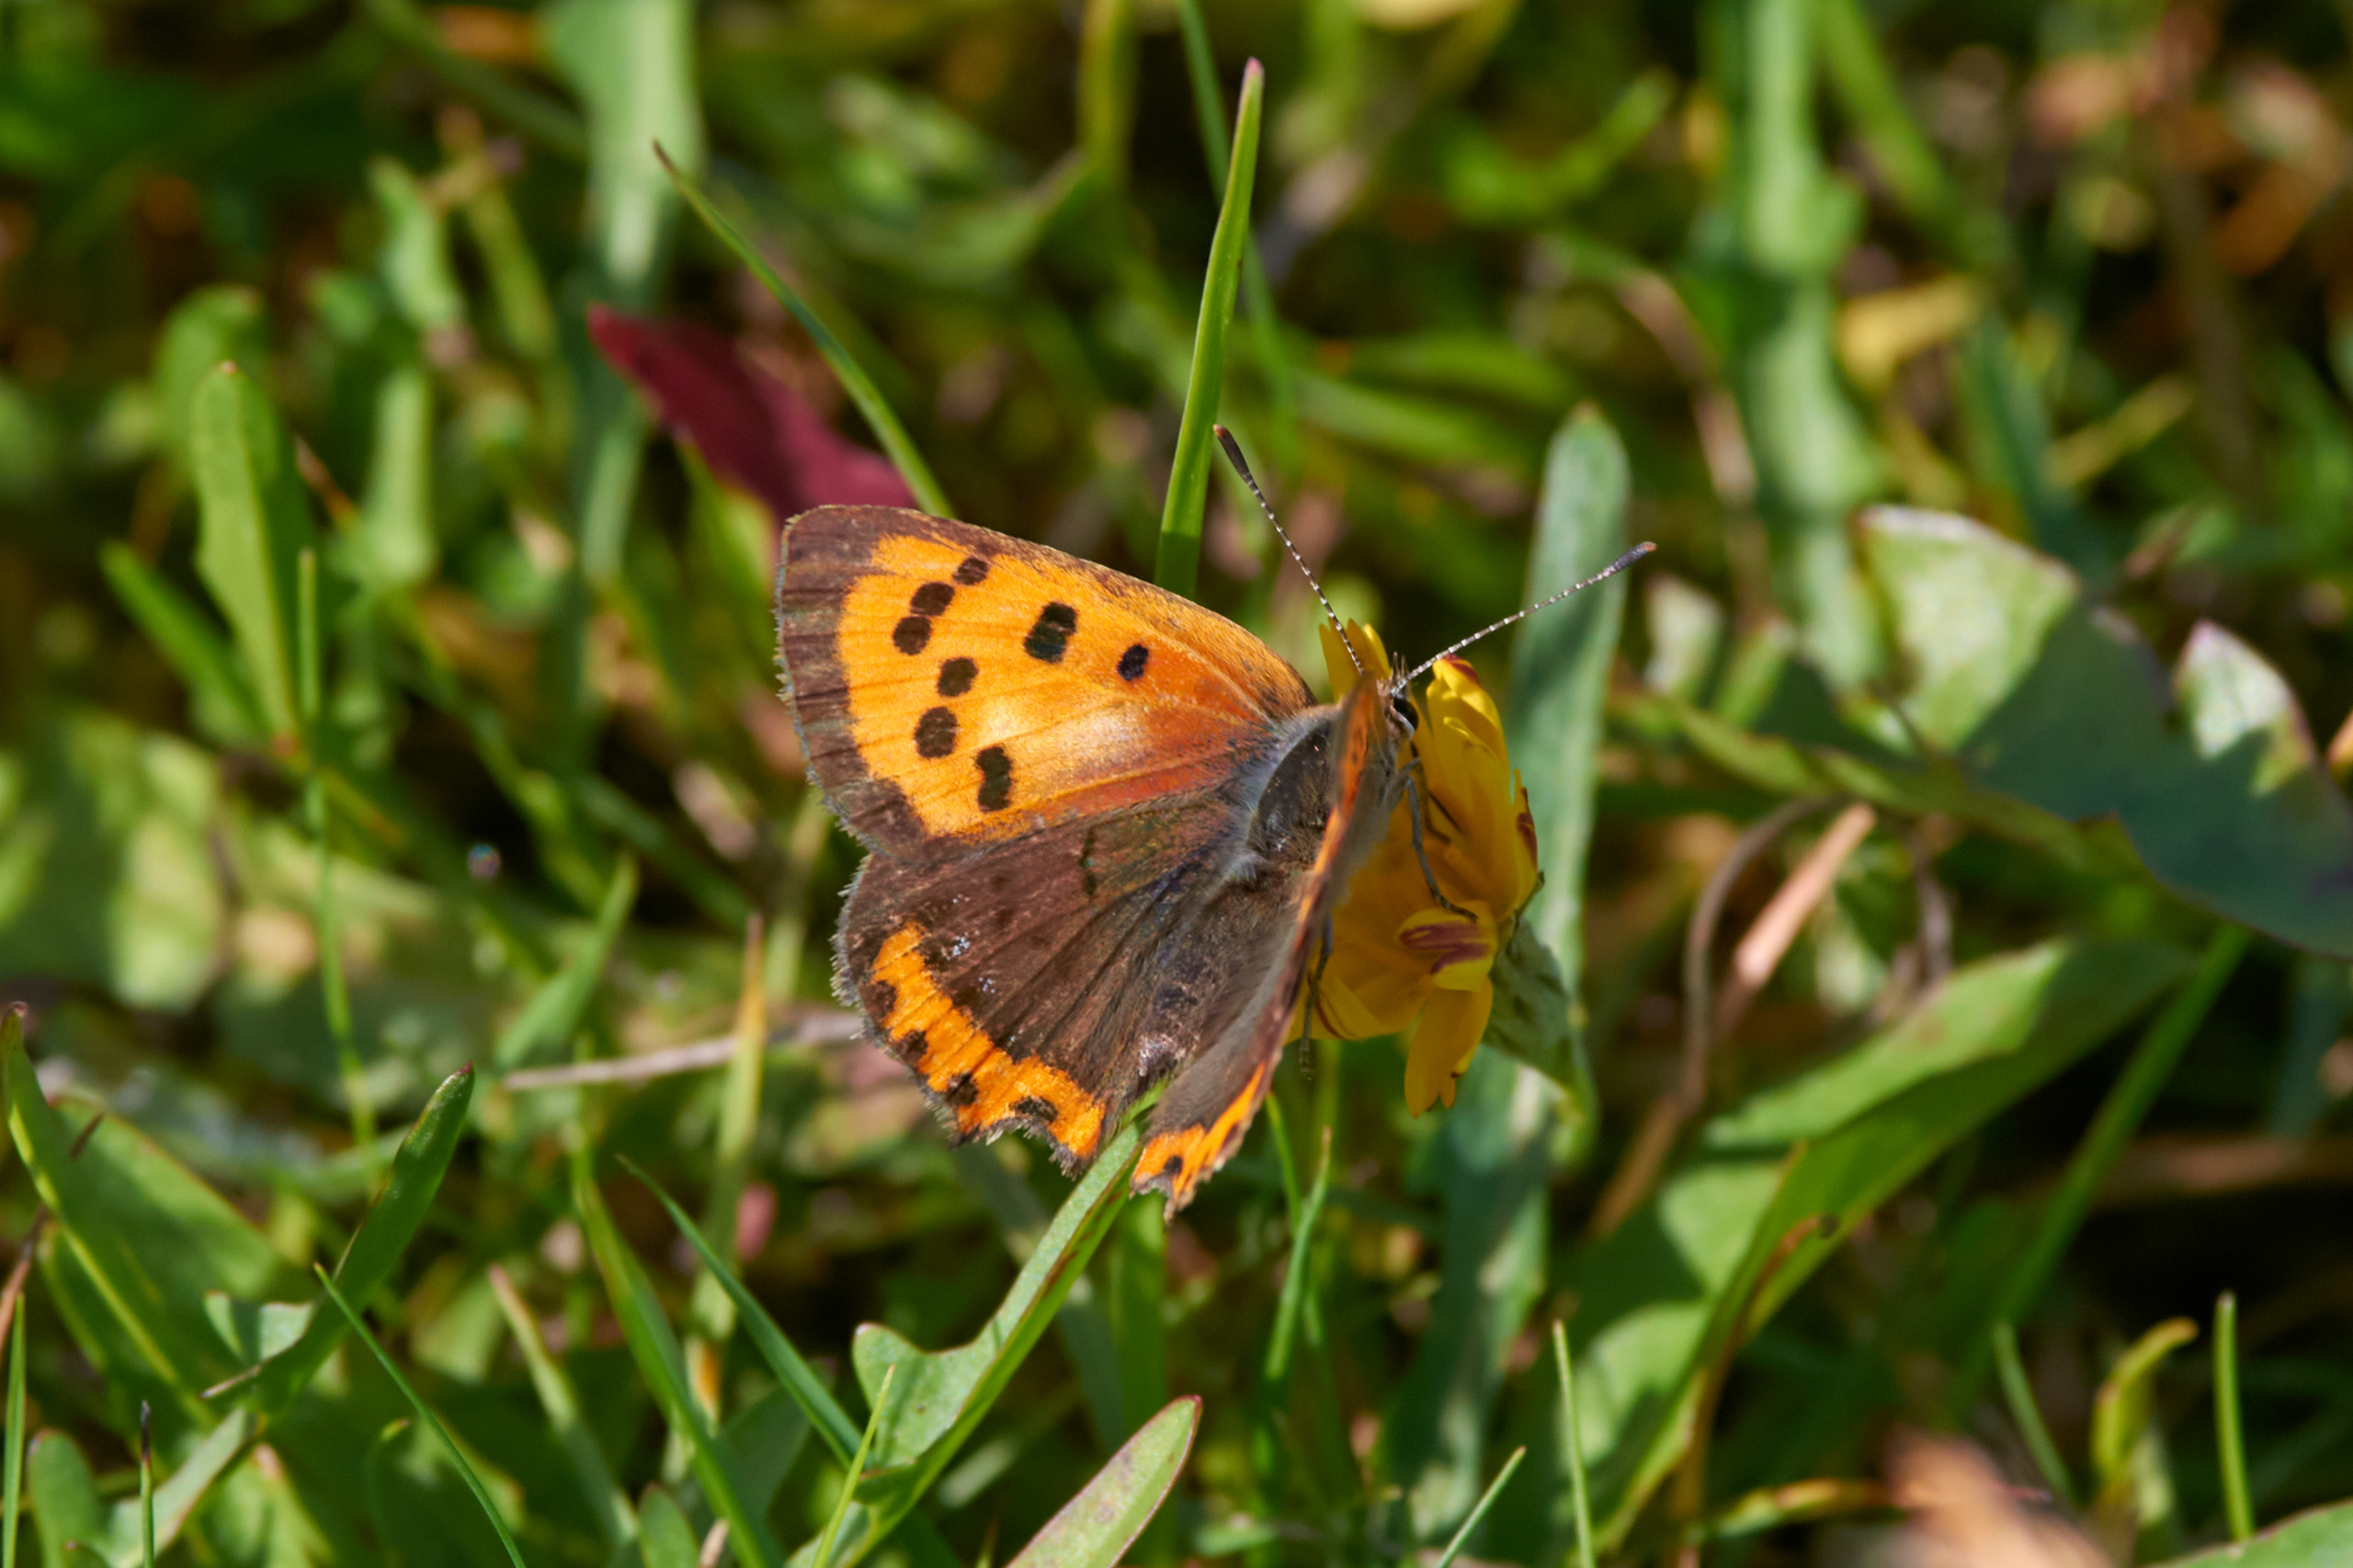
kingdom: Animalia
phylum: Arthropoda
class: Insecta
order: Lepidoptera
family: Lycaenidae
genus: Lycaena
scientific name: Lycaena phlaeas
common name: Lille ildfugl
